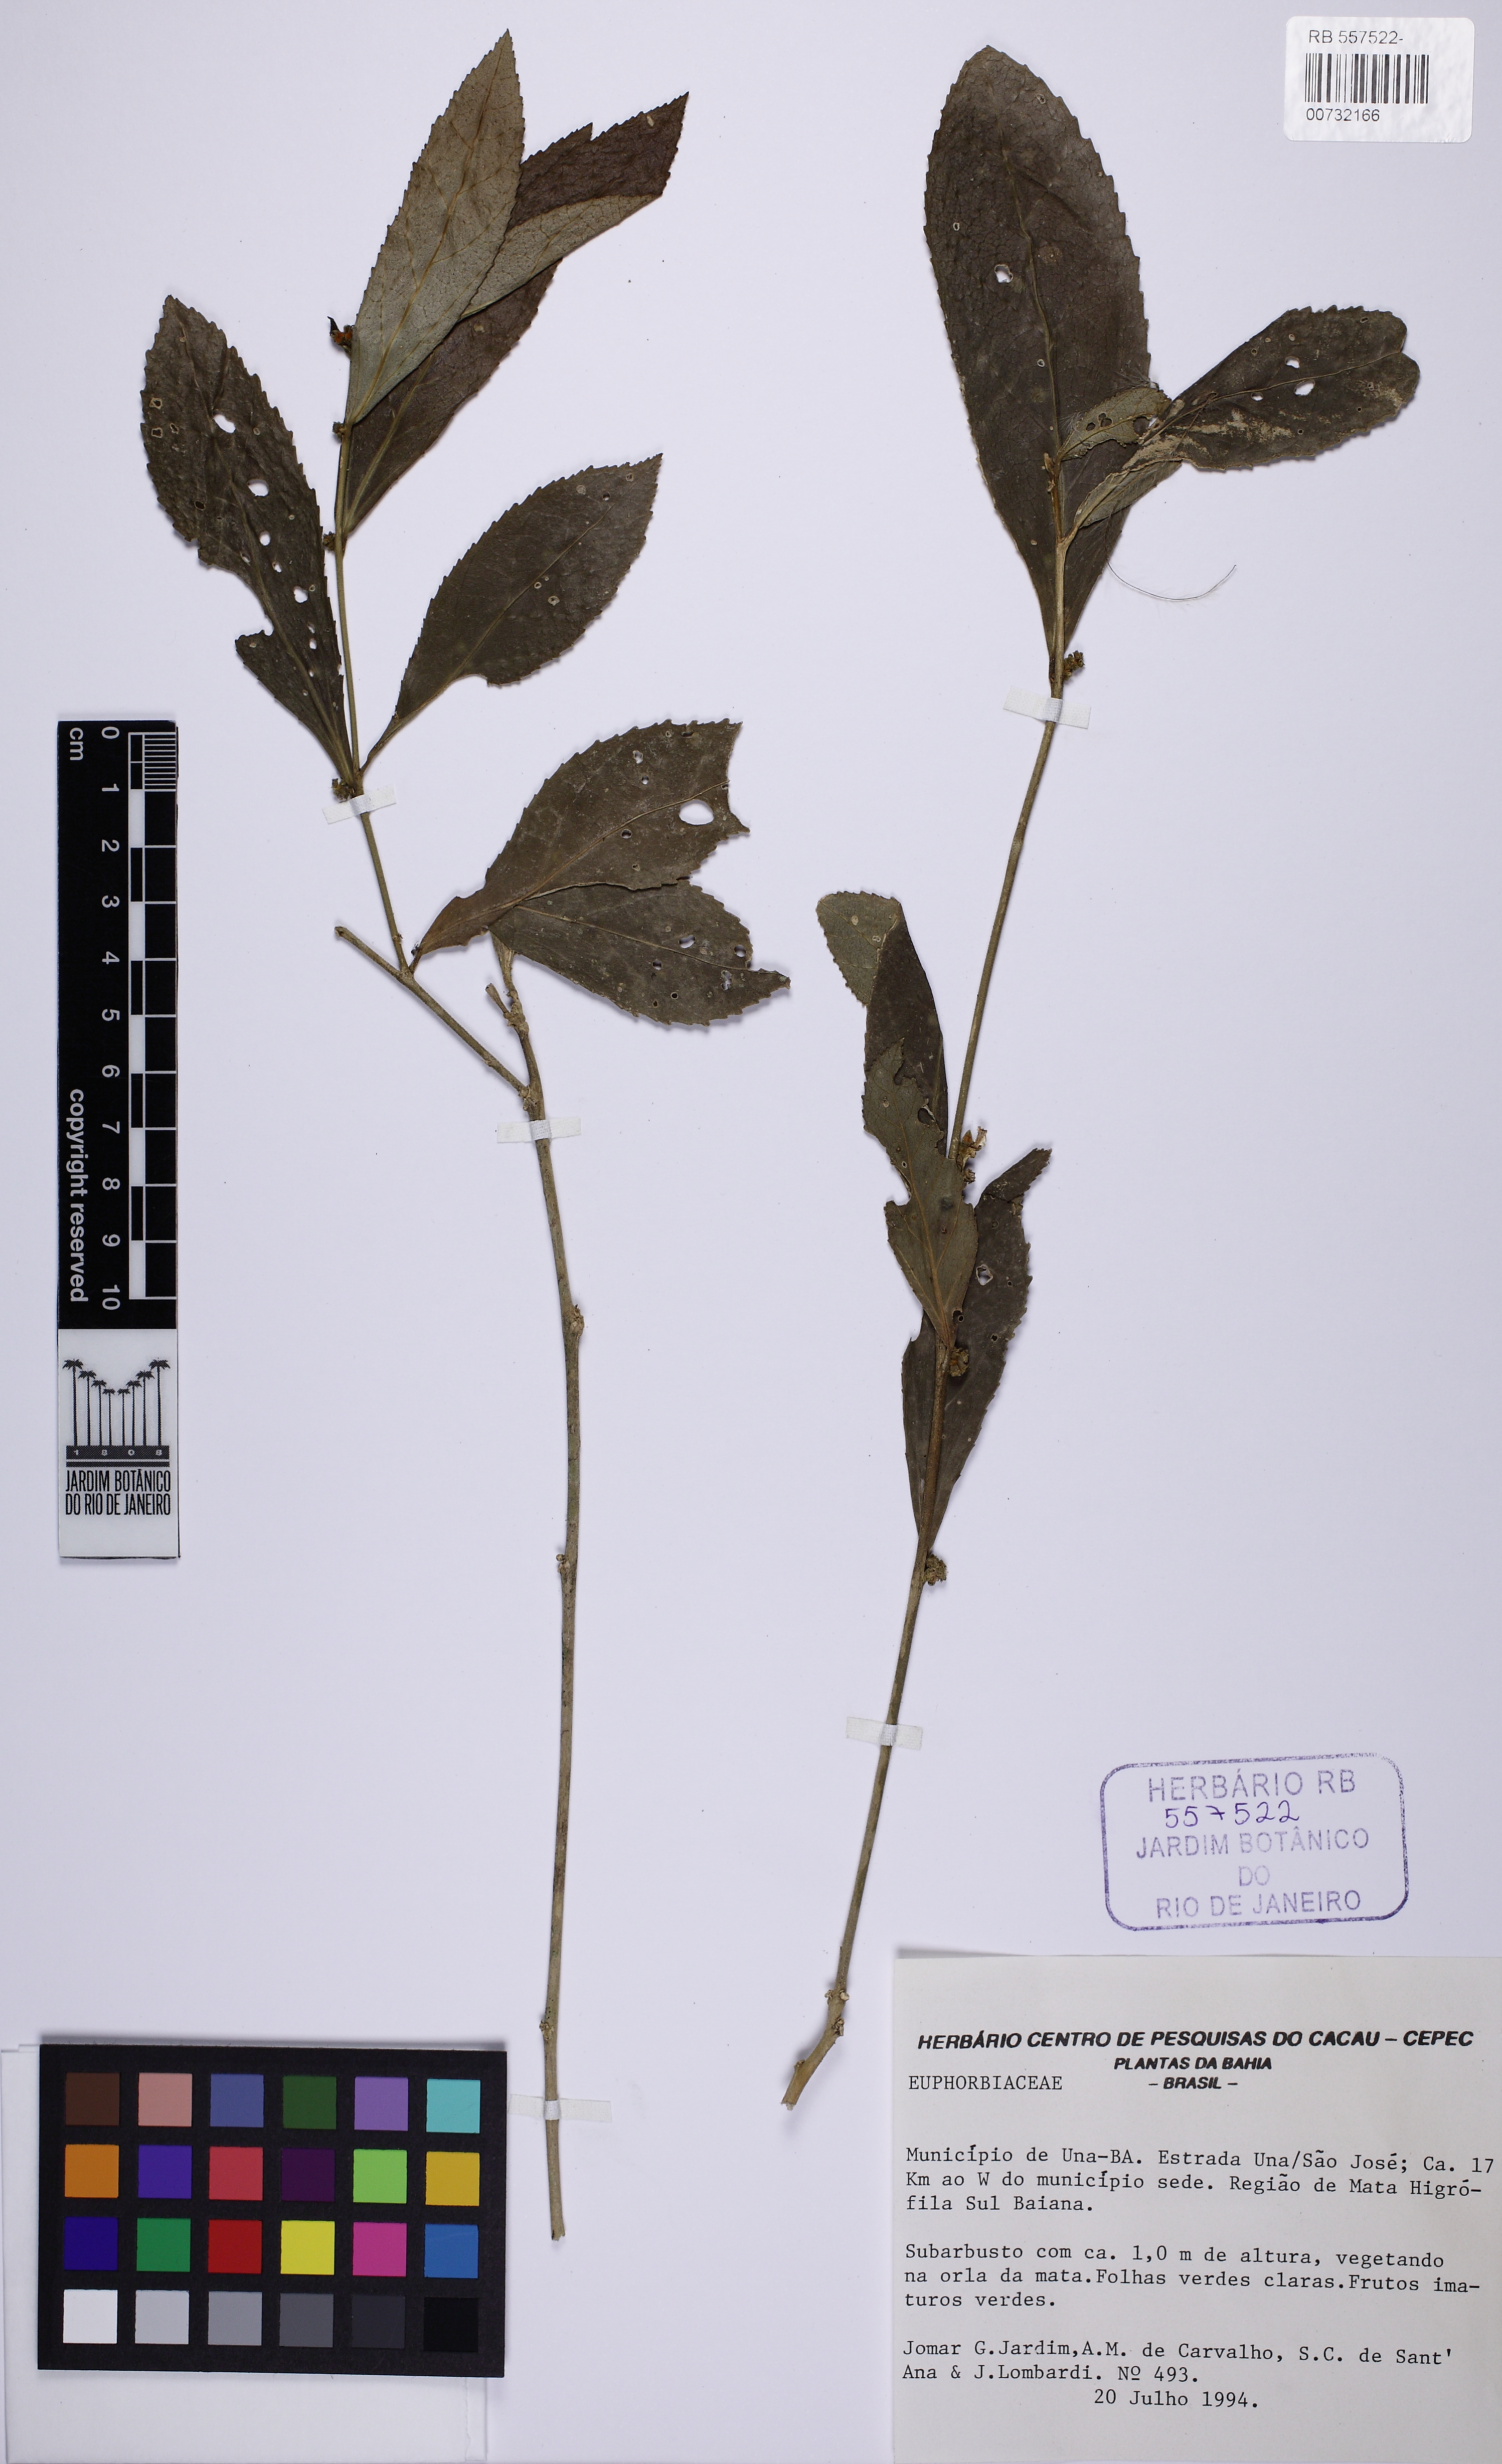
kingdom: Plantae
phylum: Tracheophyta
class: Magnoliopsida
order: Malpighiales
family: Euphorbiaceae
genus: Bernardia
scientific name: Bernardia scabra
